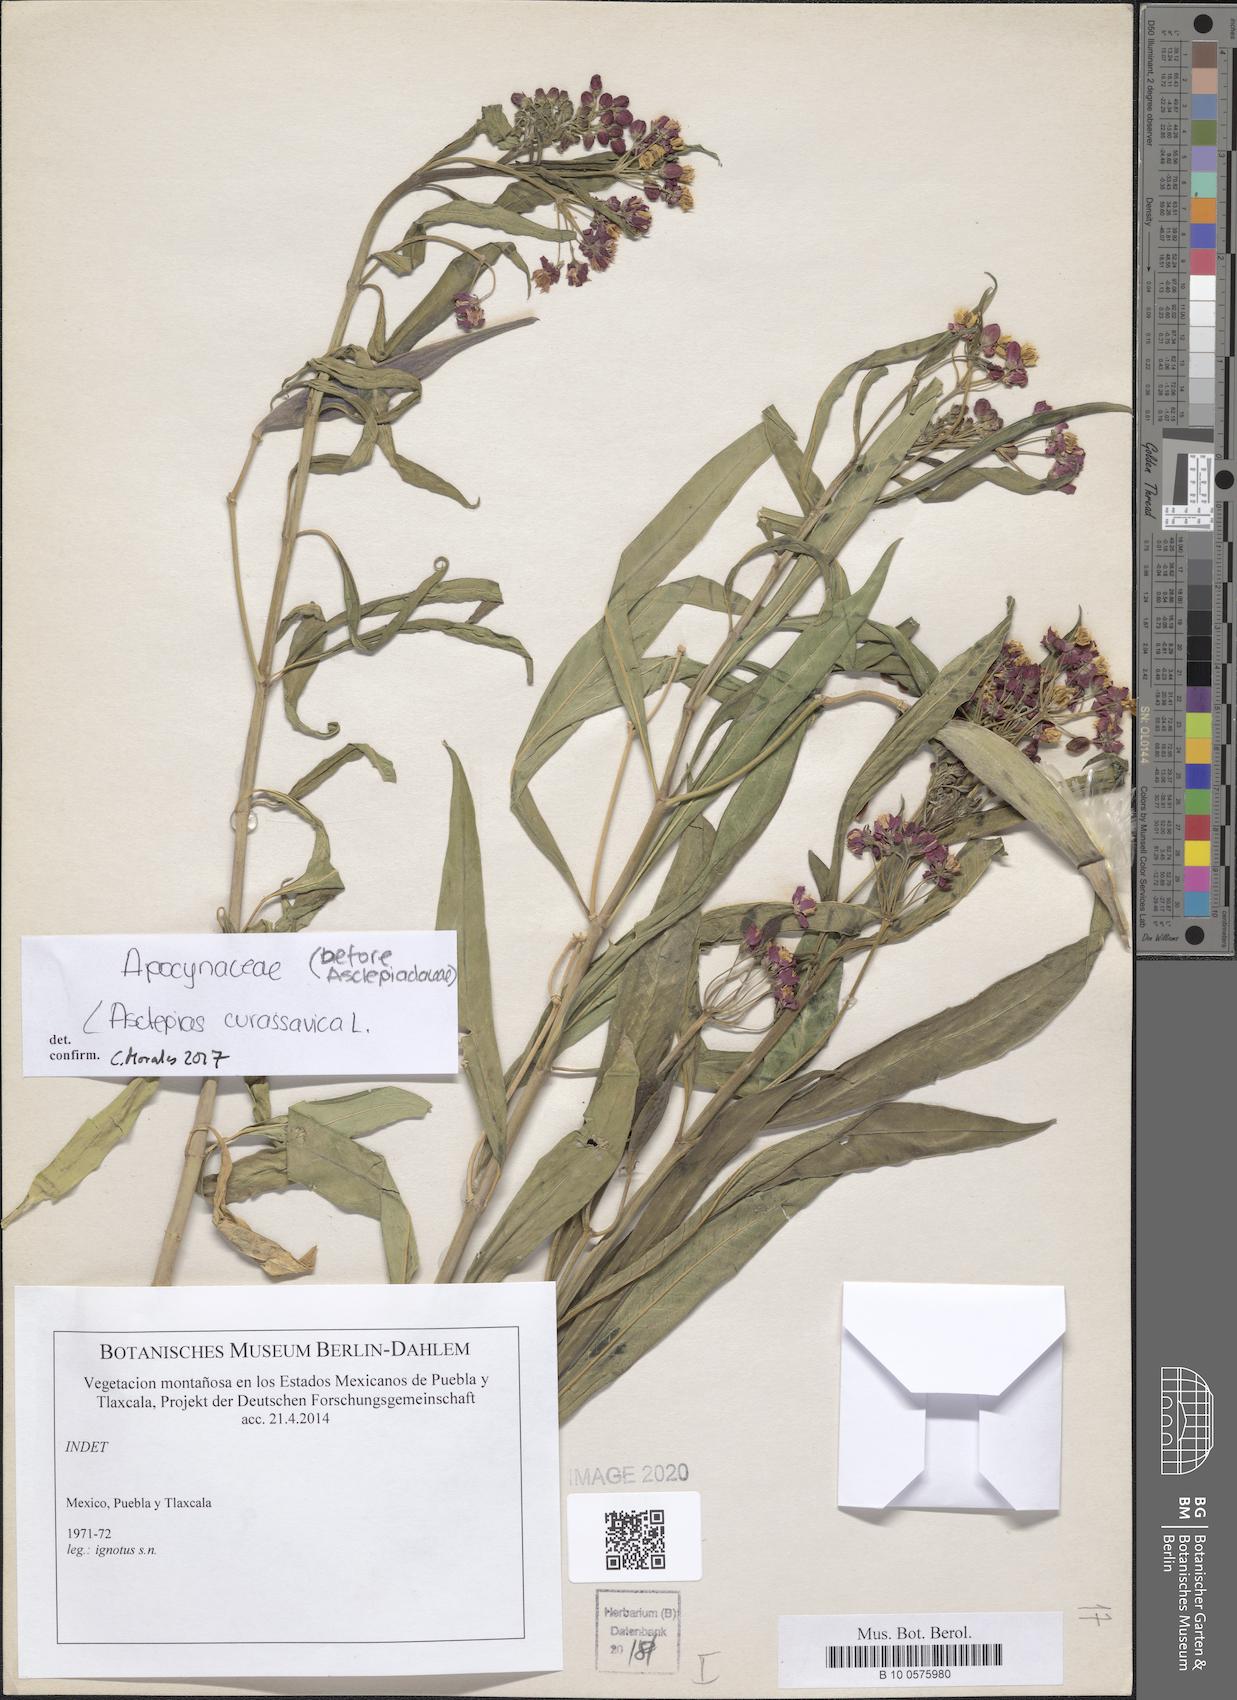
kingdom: Plantae
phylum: Tracheophyta
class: Magnoliopsida
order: Gentianales
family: Apocynaceae
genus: Asclepias
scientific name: Asclepias curassavica
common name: Bloodflower
